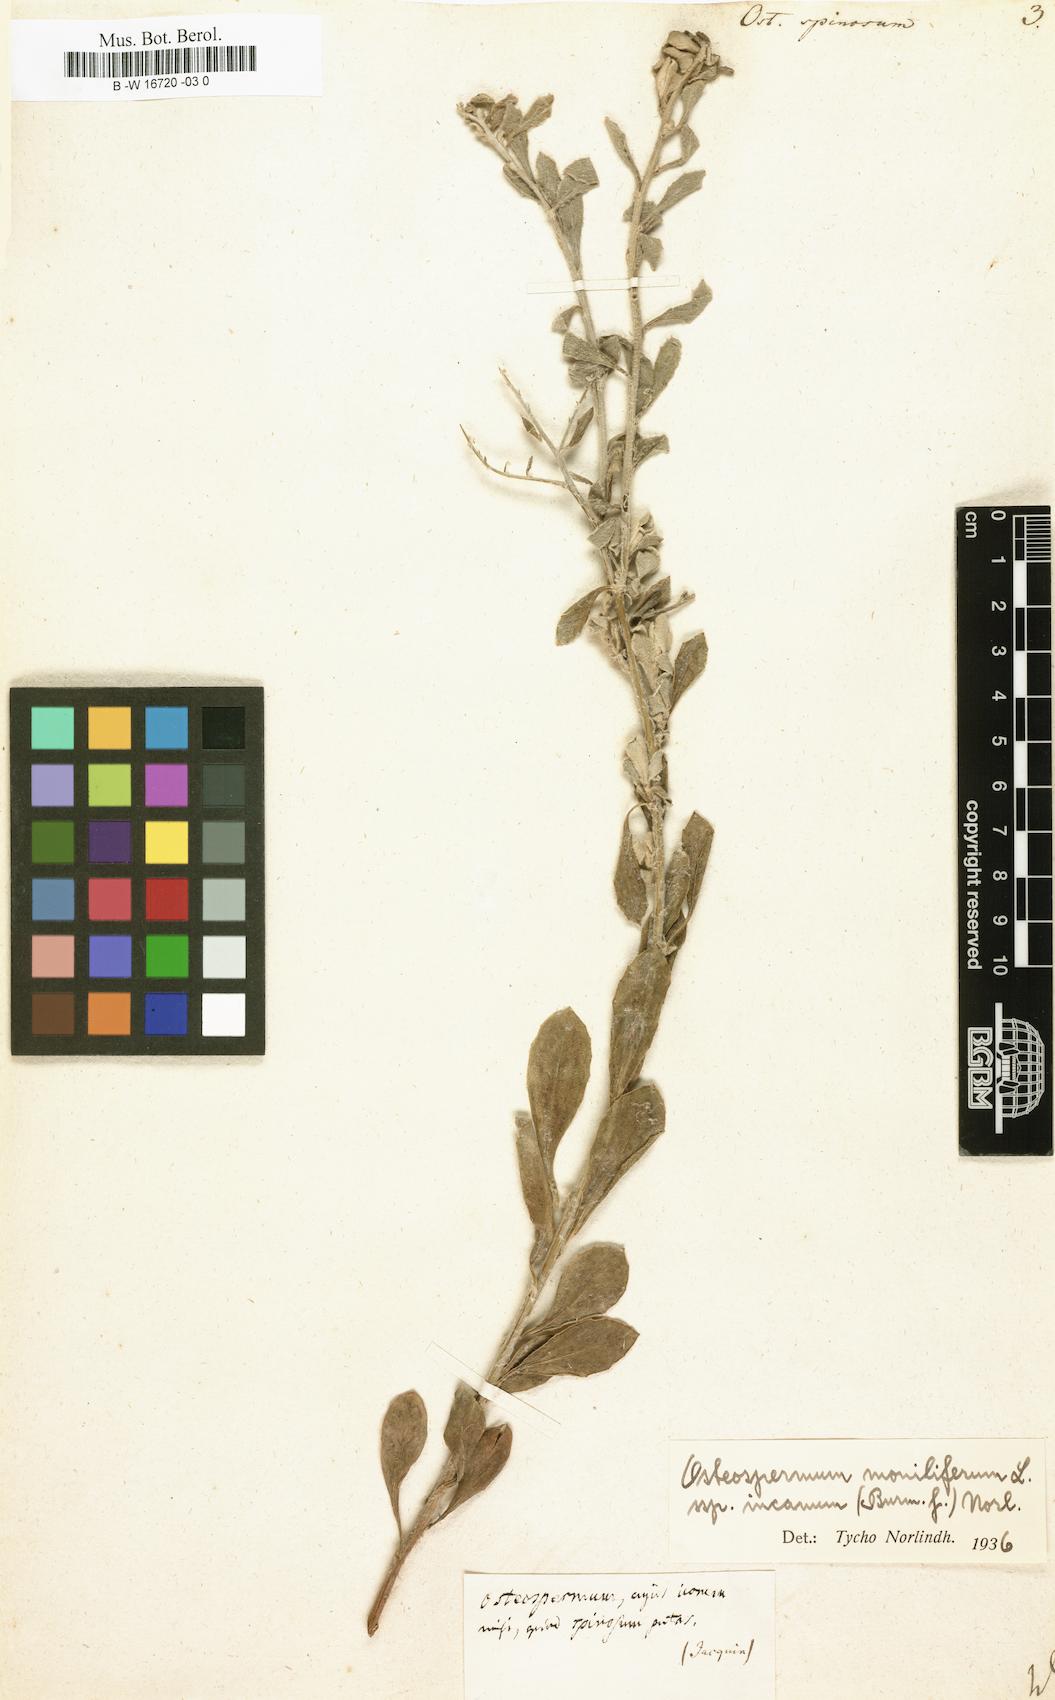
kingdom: Plantae
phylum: Tracheophyta
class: Magnoliopsida
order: Asterales
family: Asteraceae
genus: Osteospermum
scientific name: Osteospermum spinosum
